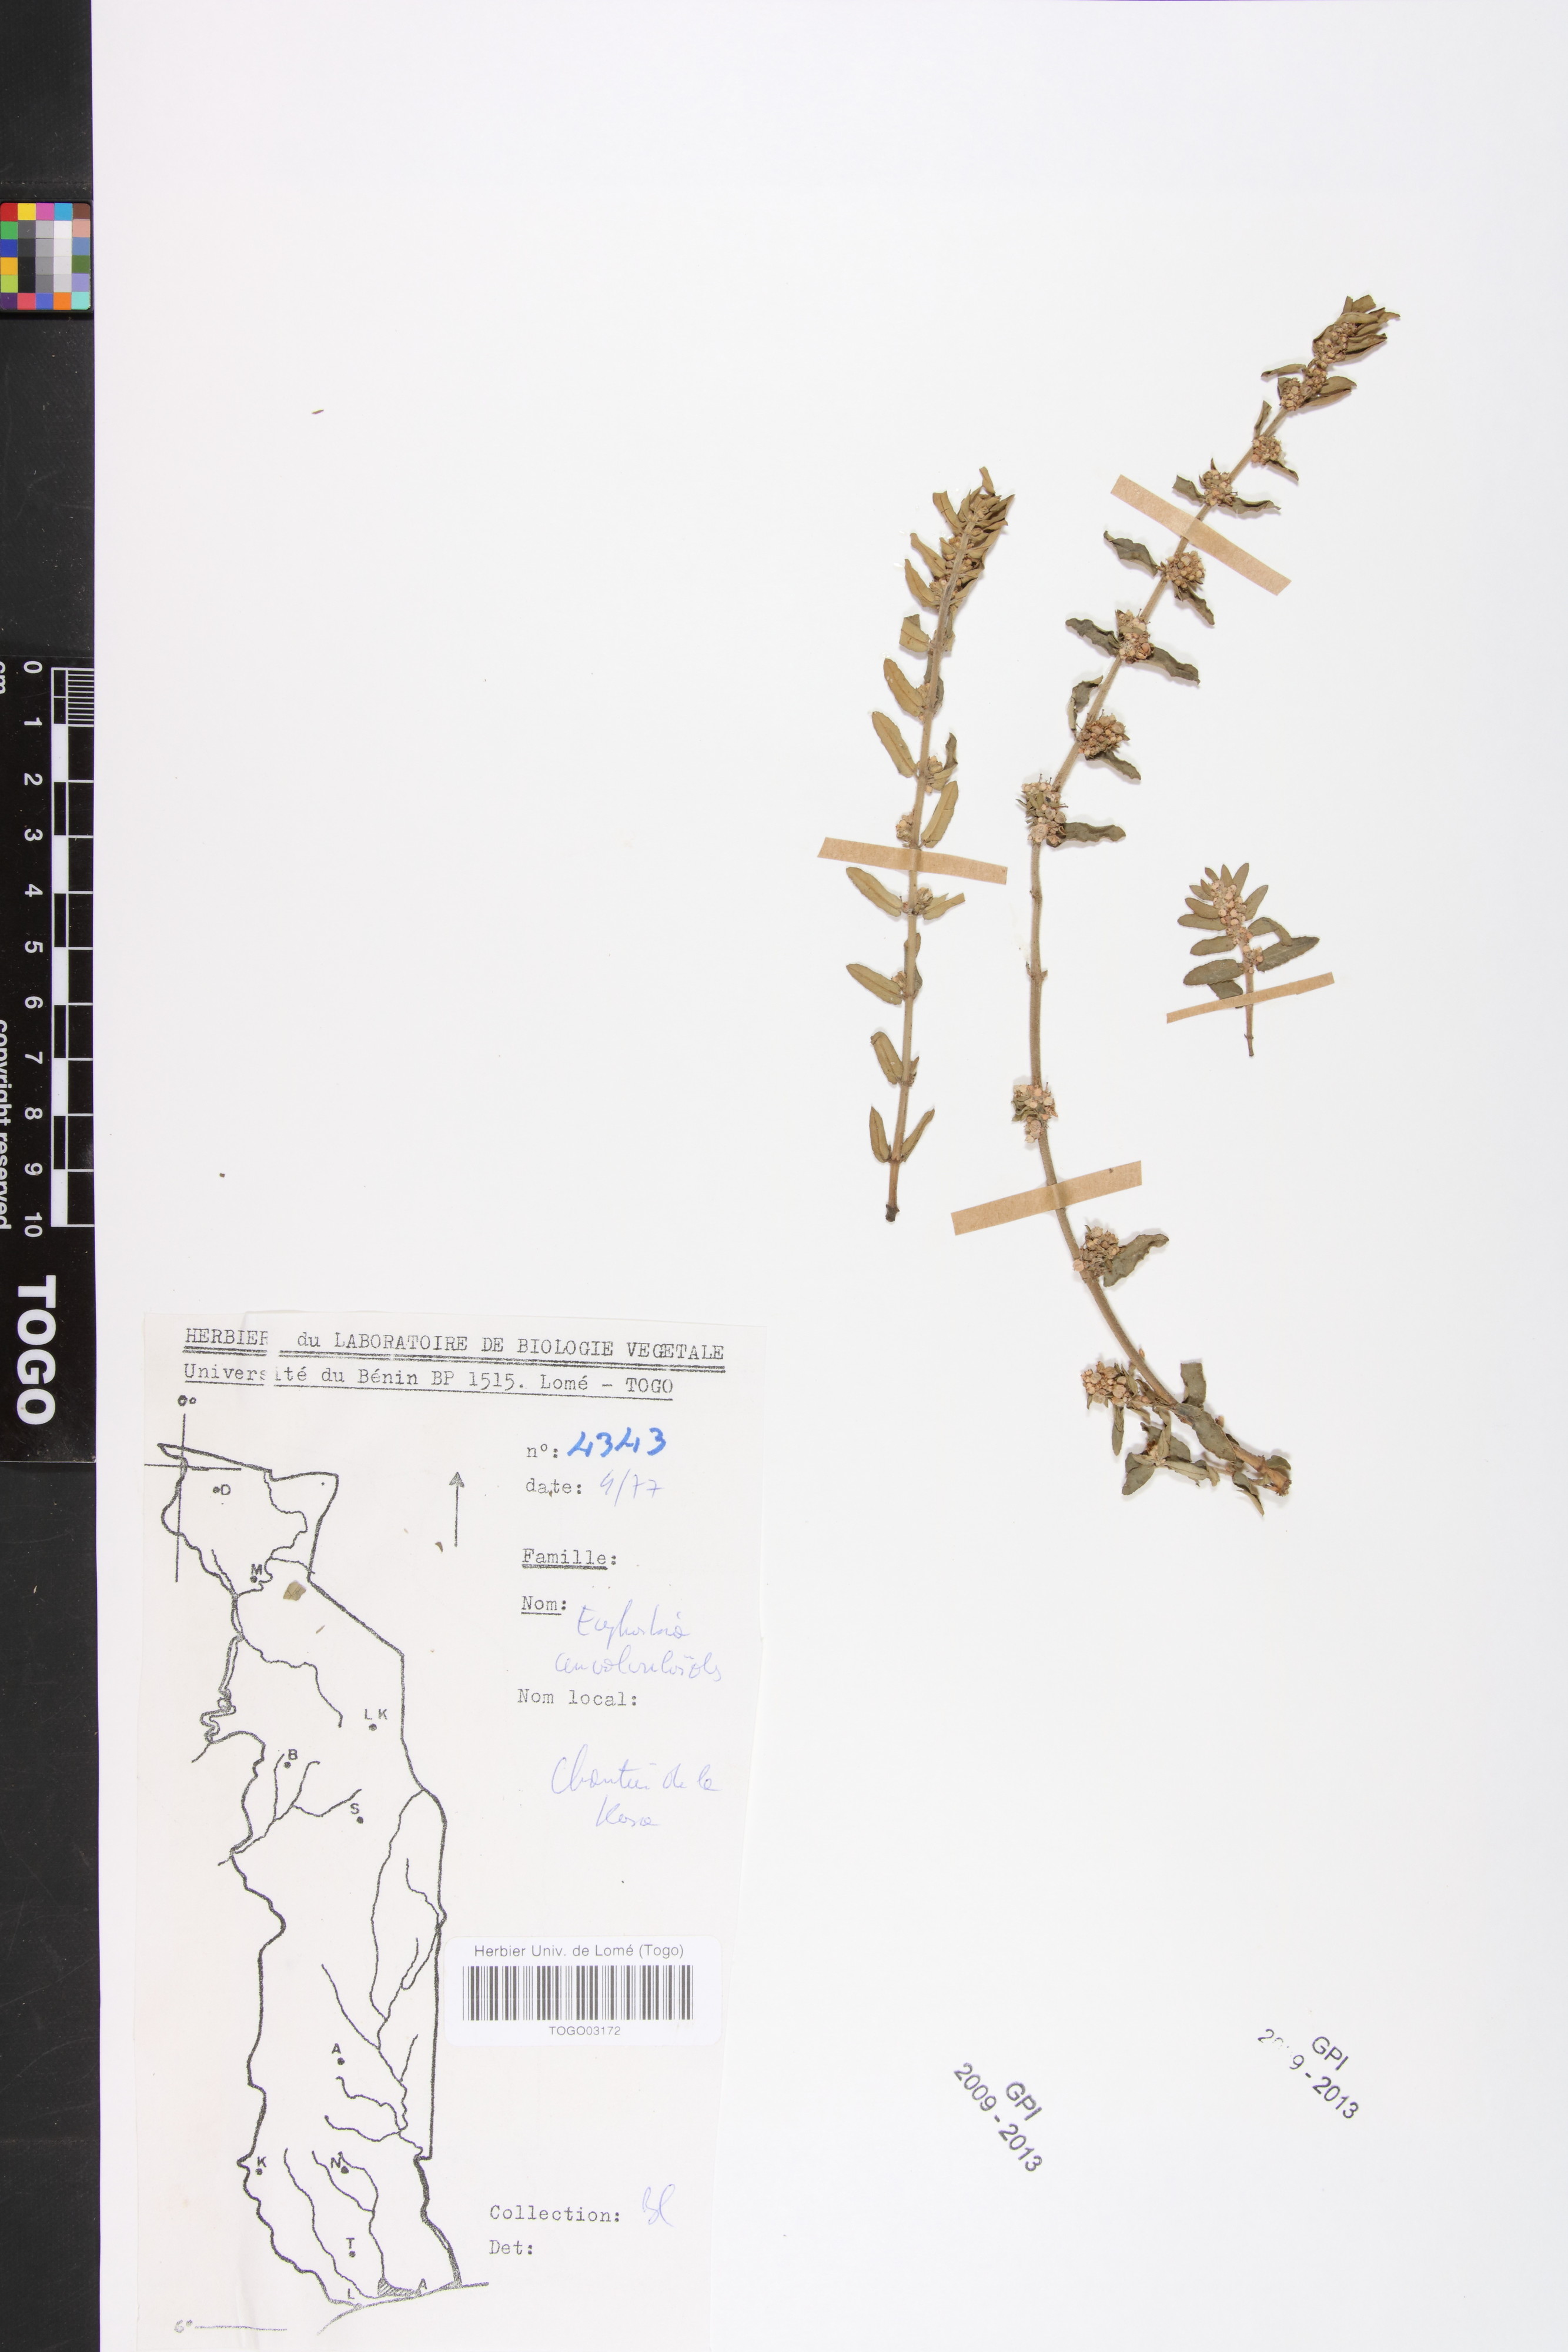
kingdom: Plantae
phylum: Tracheophyta
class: Magnoliopsida
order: Malpighiales
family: Euphorbiaceae
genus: Euphorbia
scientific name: Euphorbia convolvuloides
